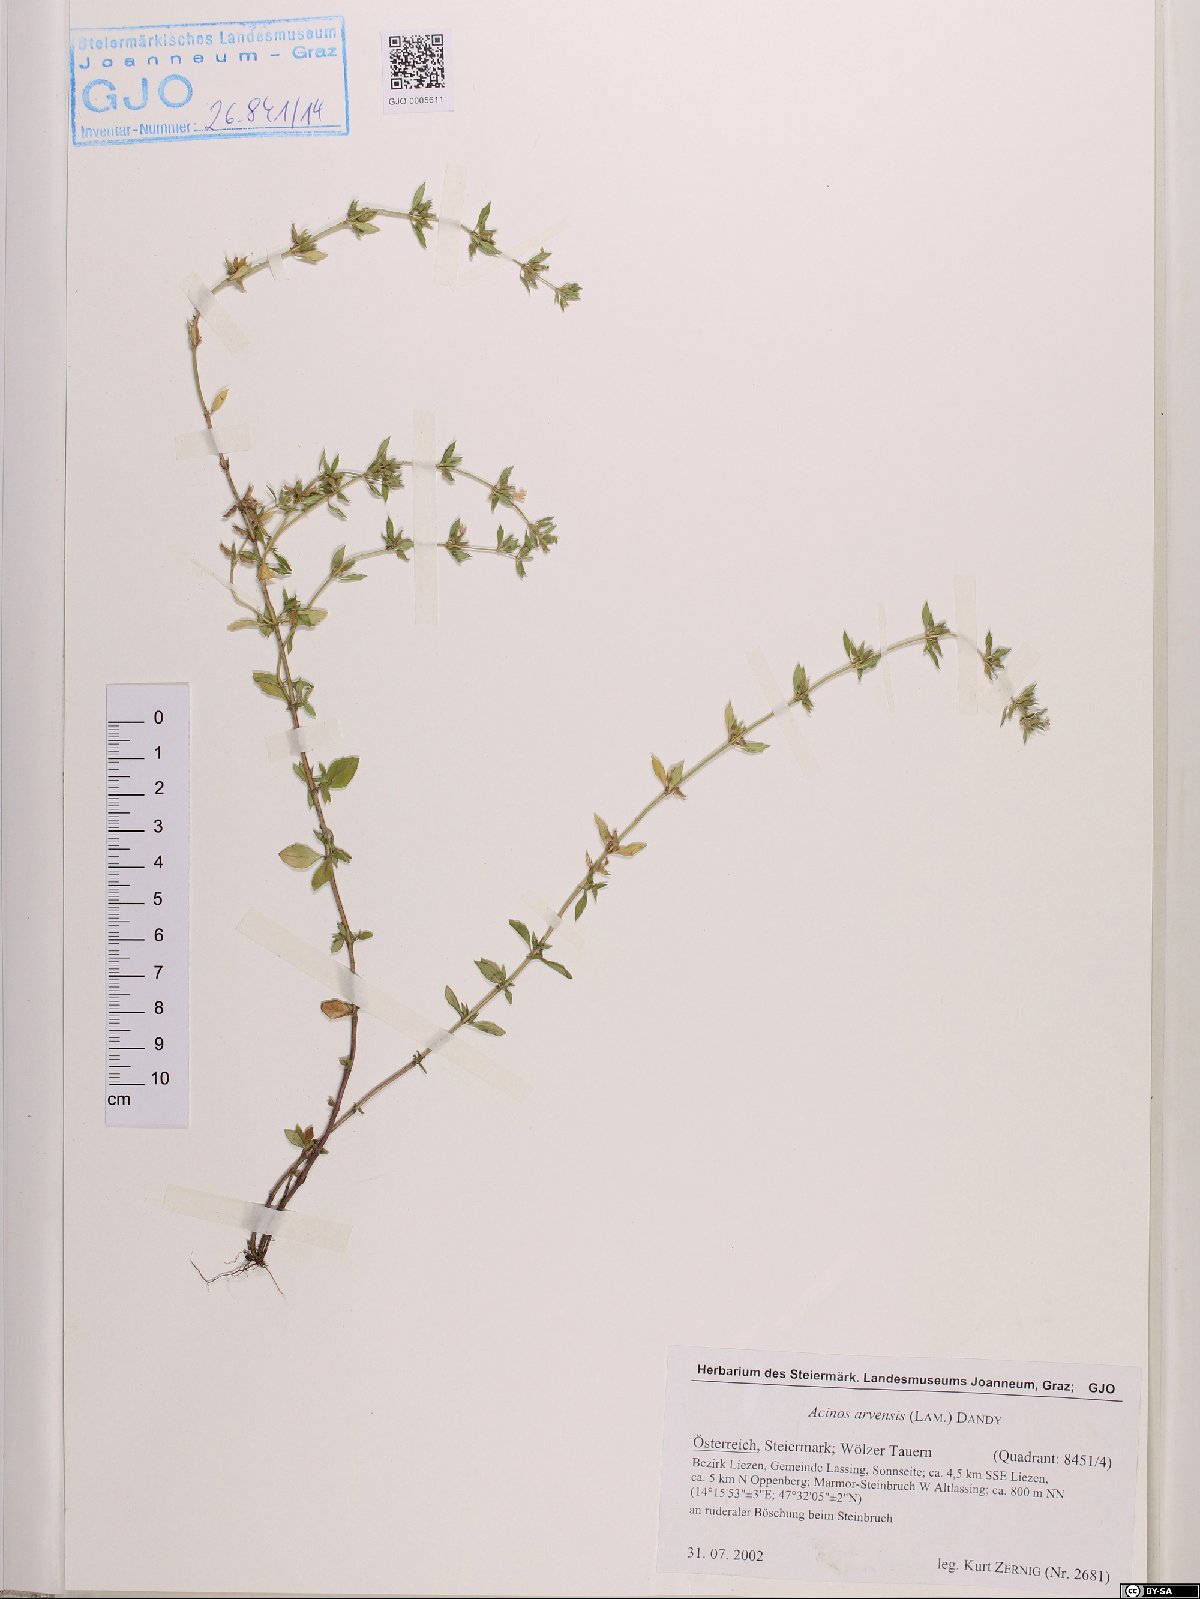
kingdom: Plantae
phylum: Tracheophyta
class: Magnoliopsida
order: Lamiales
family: Lamiaceae
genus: Clinopodium
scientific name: Clinopodium acinos
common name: Basil thyme
